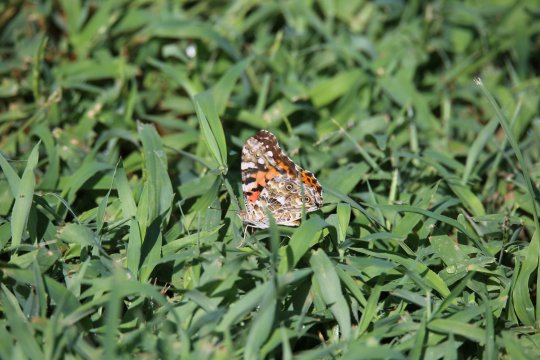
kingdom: Animalia
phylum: Arthropoda
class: Insecta
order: Lepidoptera
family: Nymphalidae
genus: Vanessa
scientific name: Vanessa cardui
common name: Painted Lady
